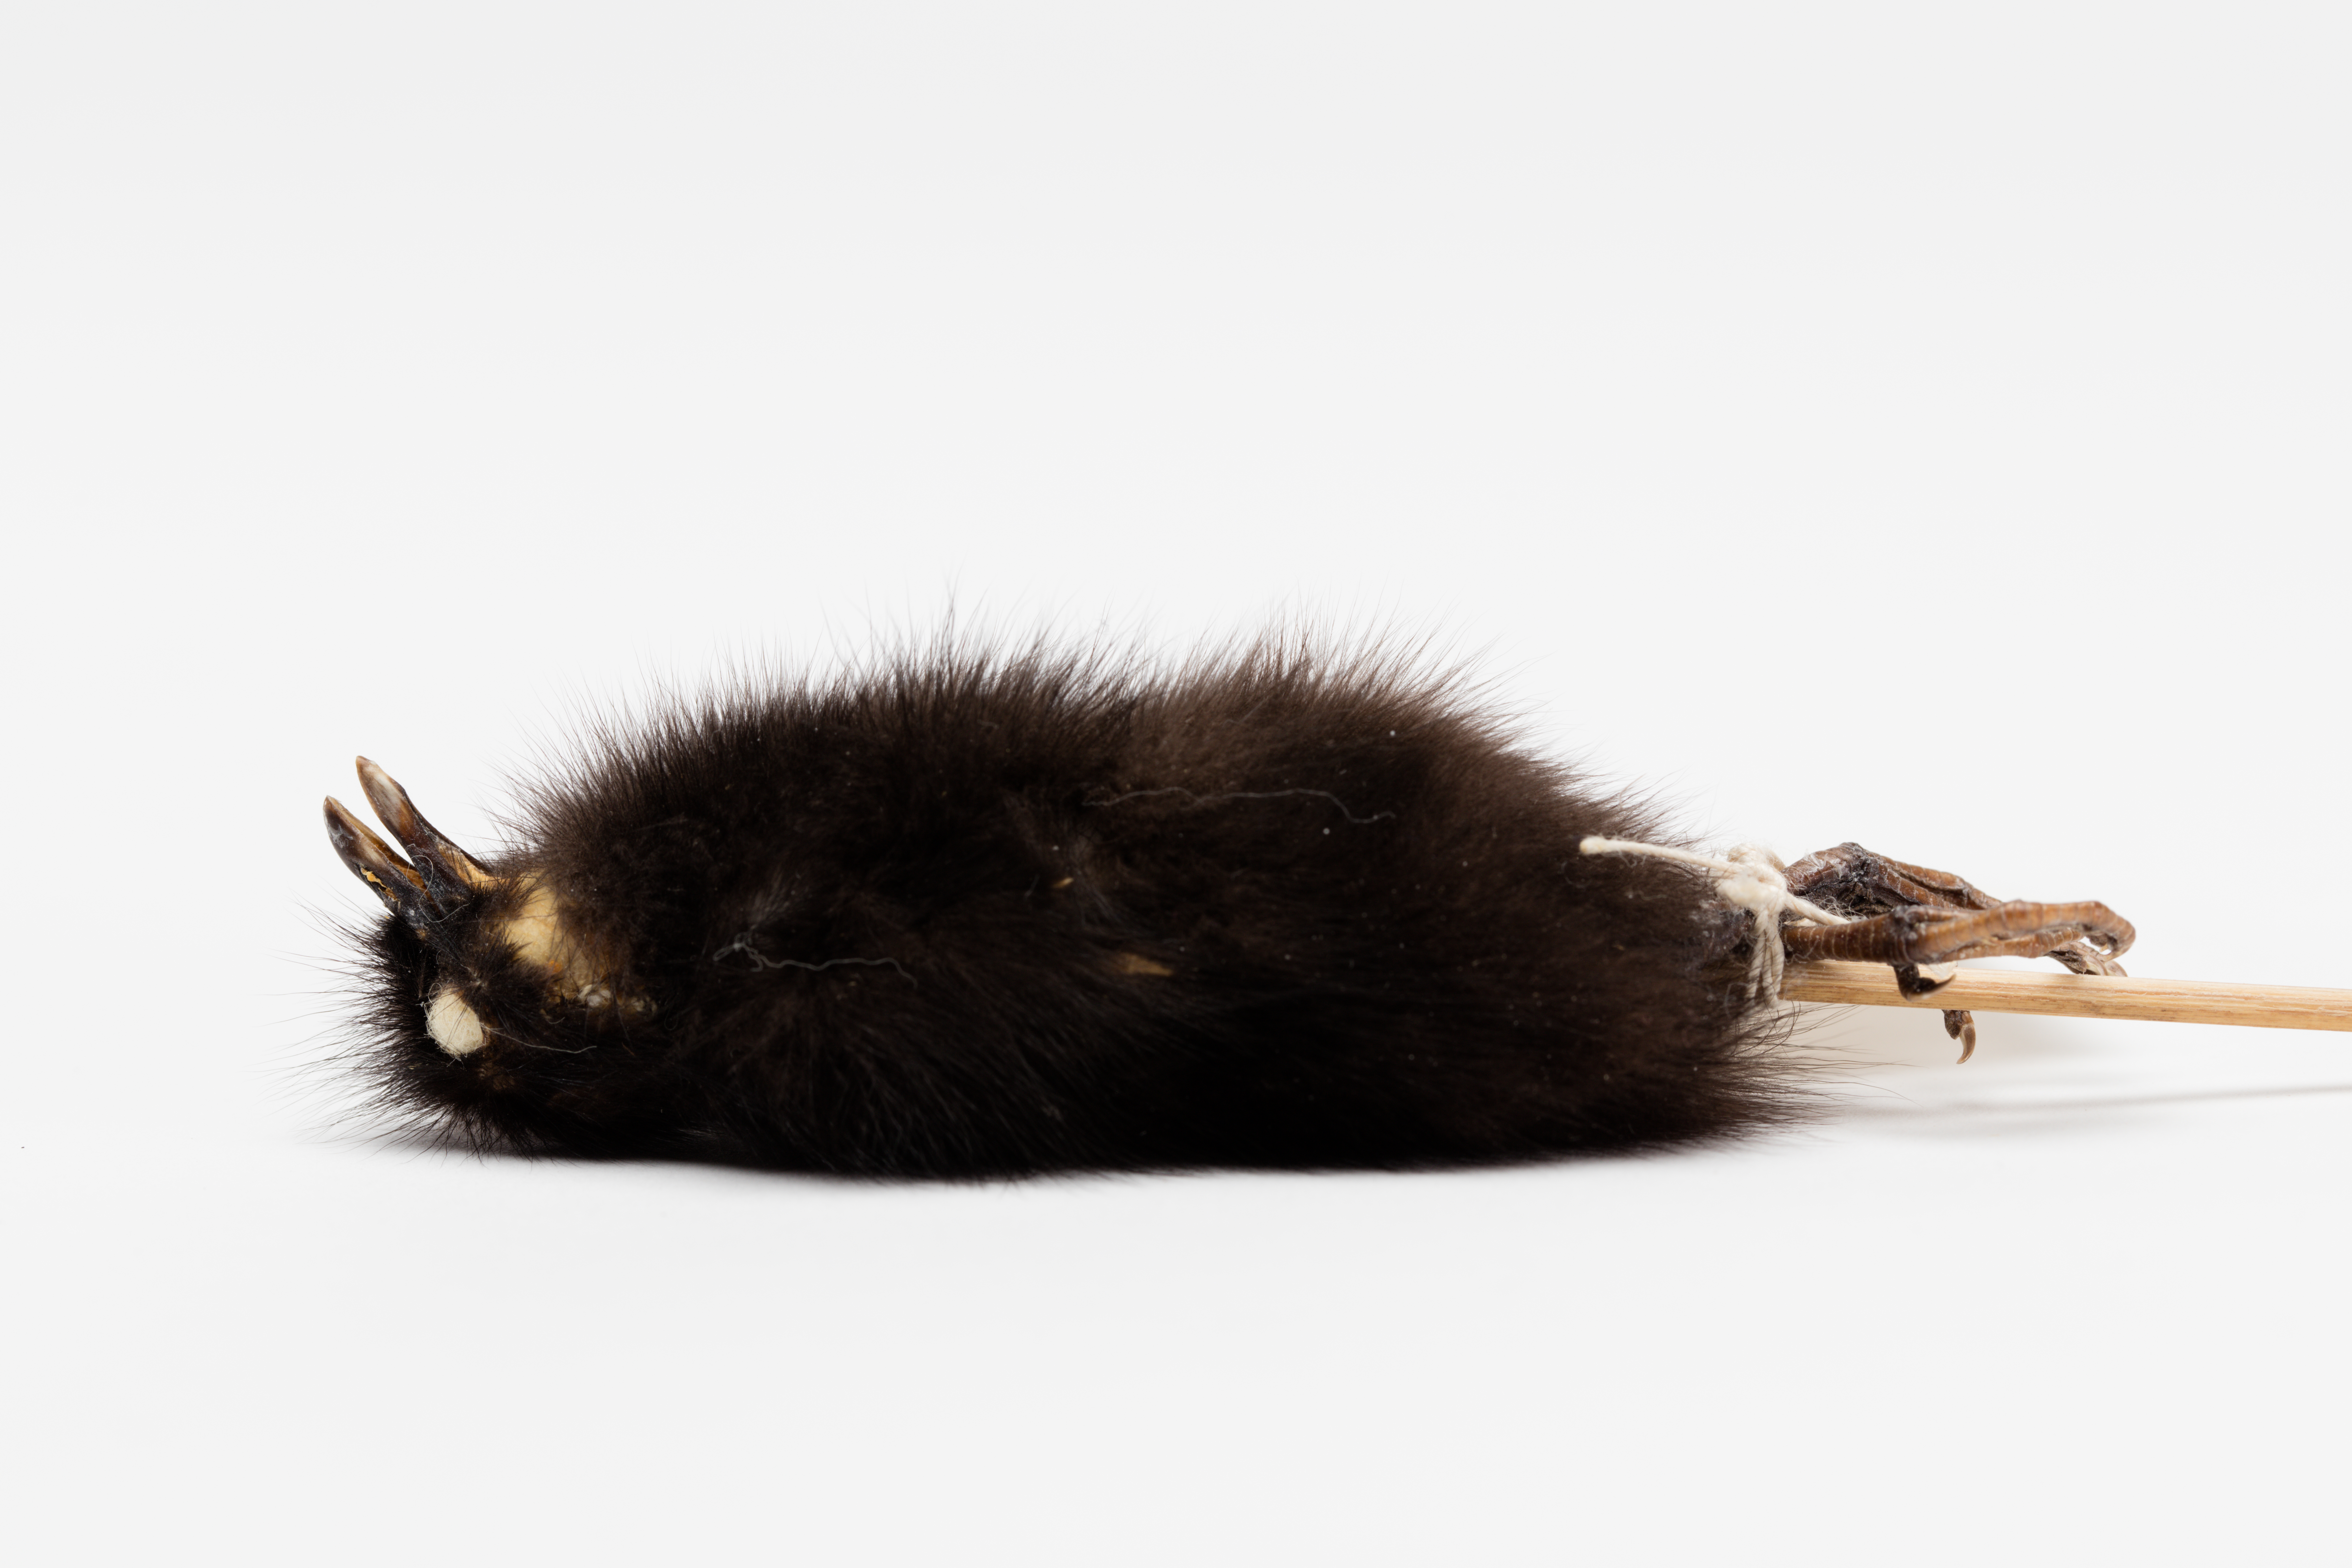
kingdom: Animalia
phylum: Chordata
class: Aves
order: Gruiformes
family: Rallidae
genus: Gallirallus
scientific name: Gallirallus philippensis
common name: Buff-banded rail
